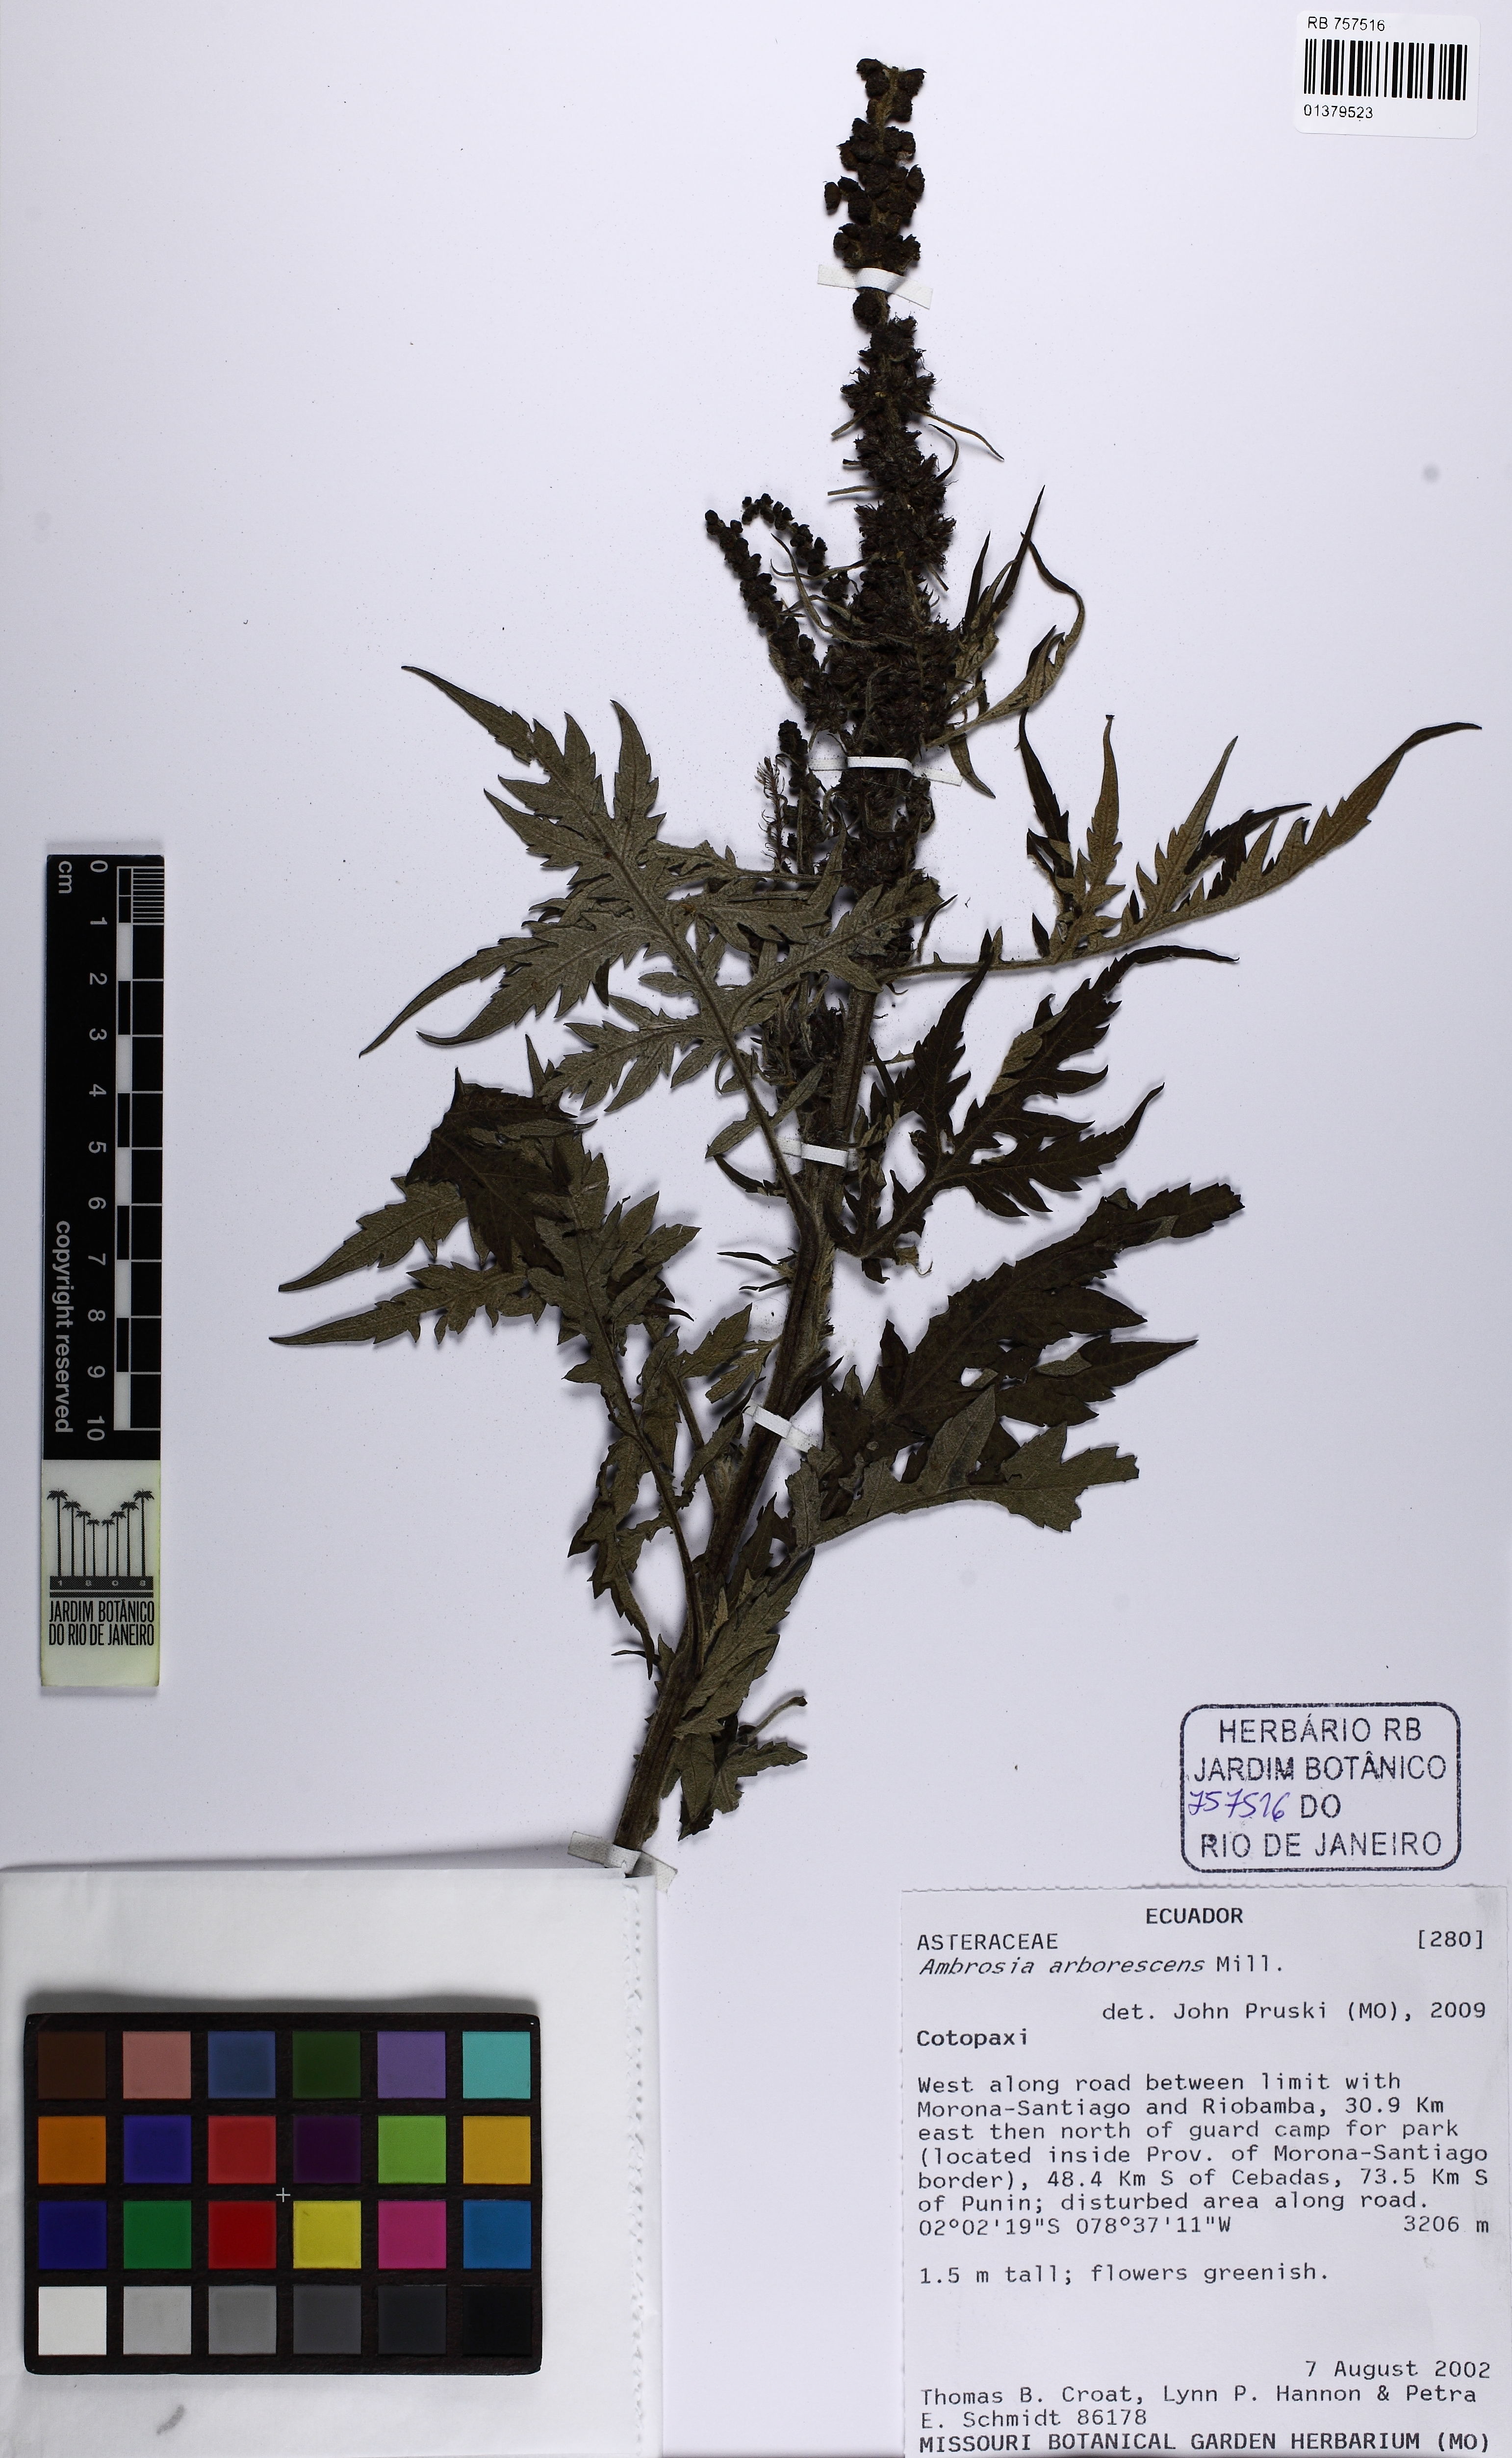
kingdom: Plantae
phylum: Tracheophyta
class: Magnoliopsida
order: Asterales
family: Asteraceae
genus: Ambrosia
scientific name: Ambrosia arborescens
